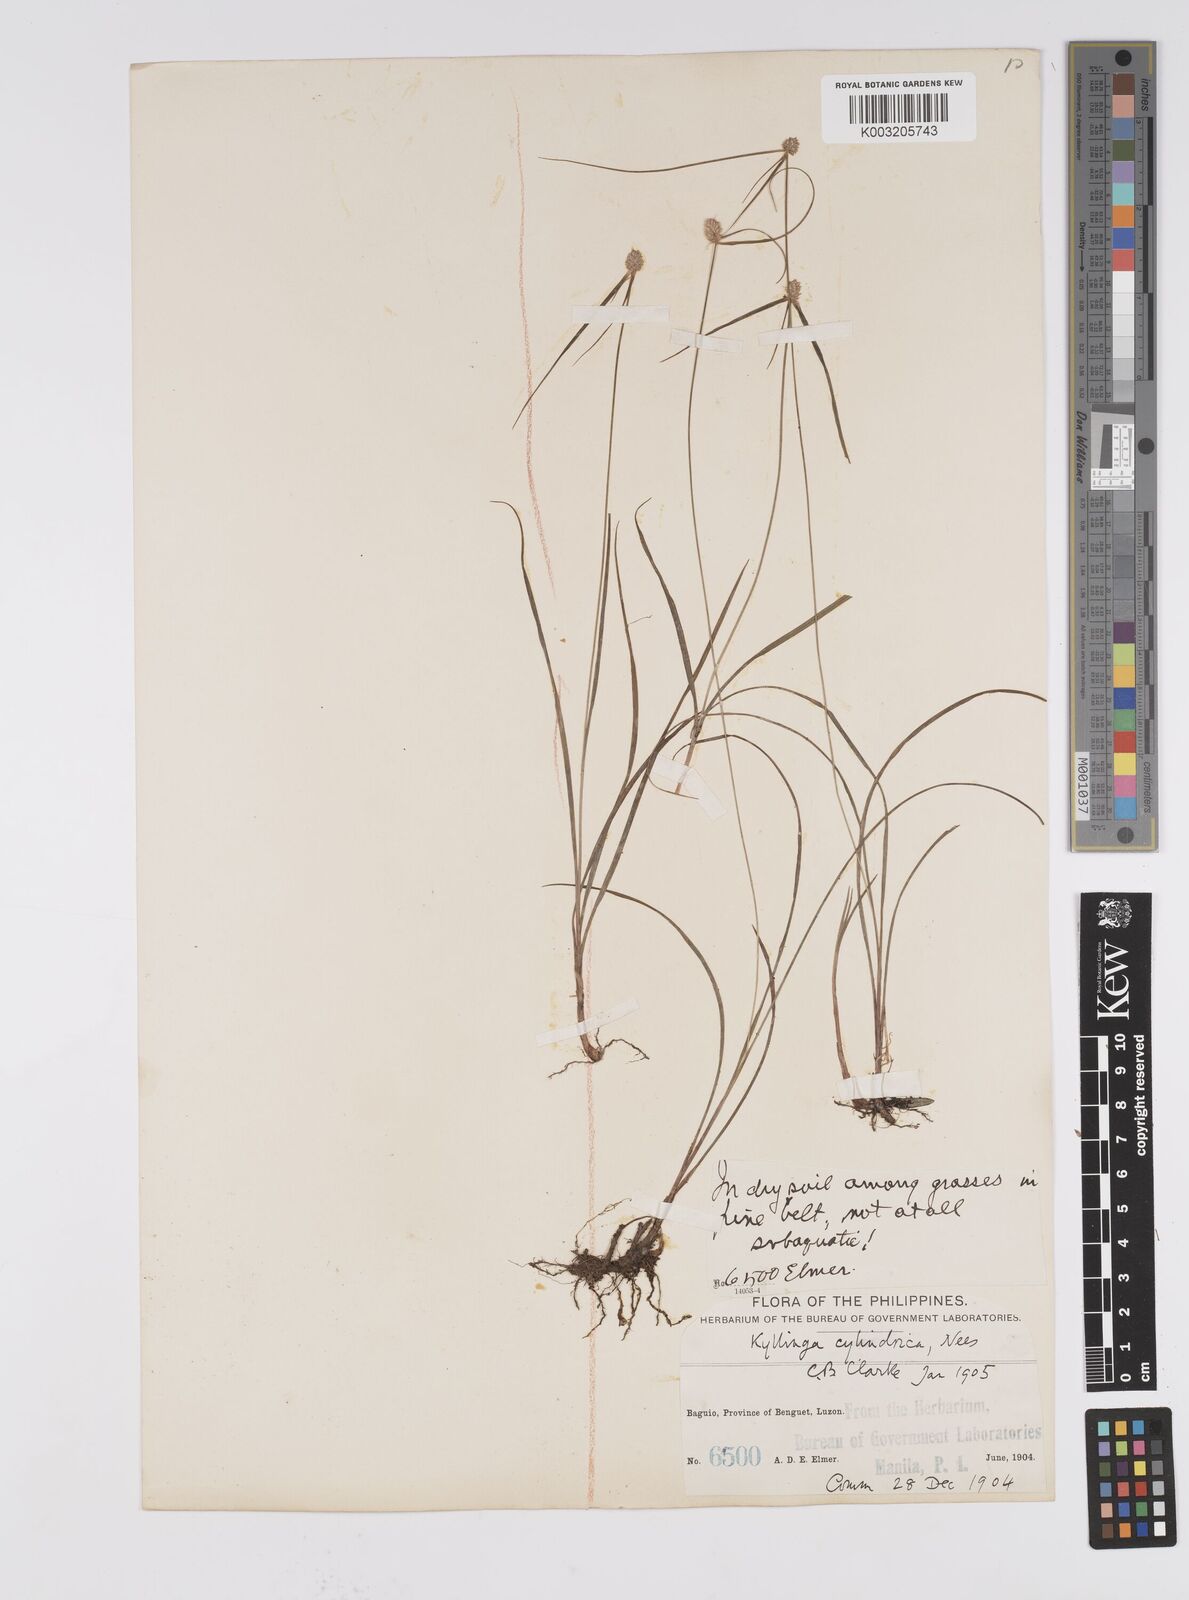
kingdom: Plantae
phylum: Tracheophyta
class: Liliopsida
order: Poales
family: Cyperaceae
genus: Cyperus
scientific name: Cyperus
